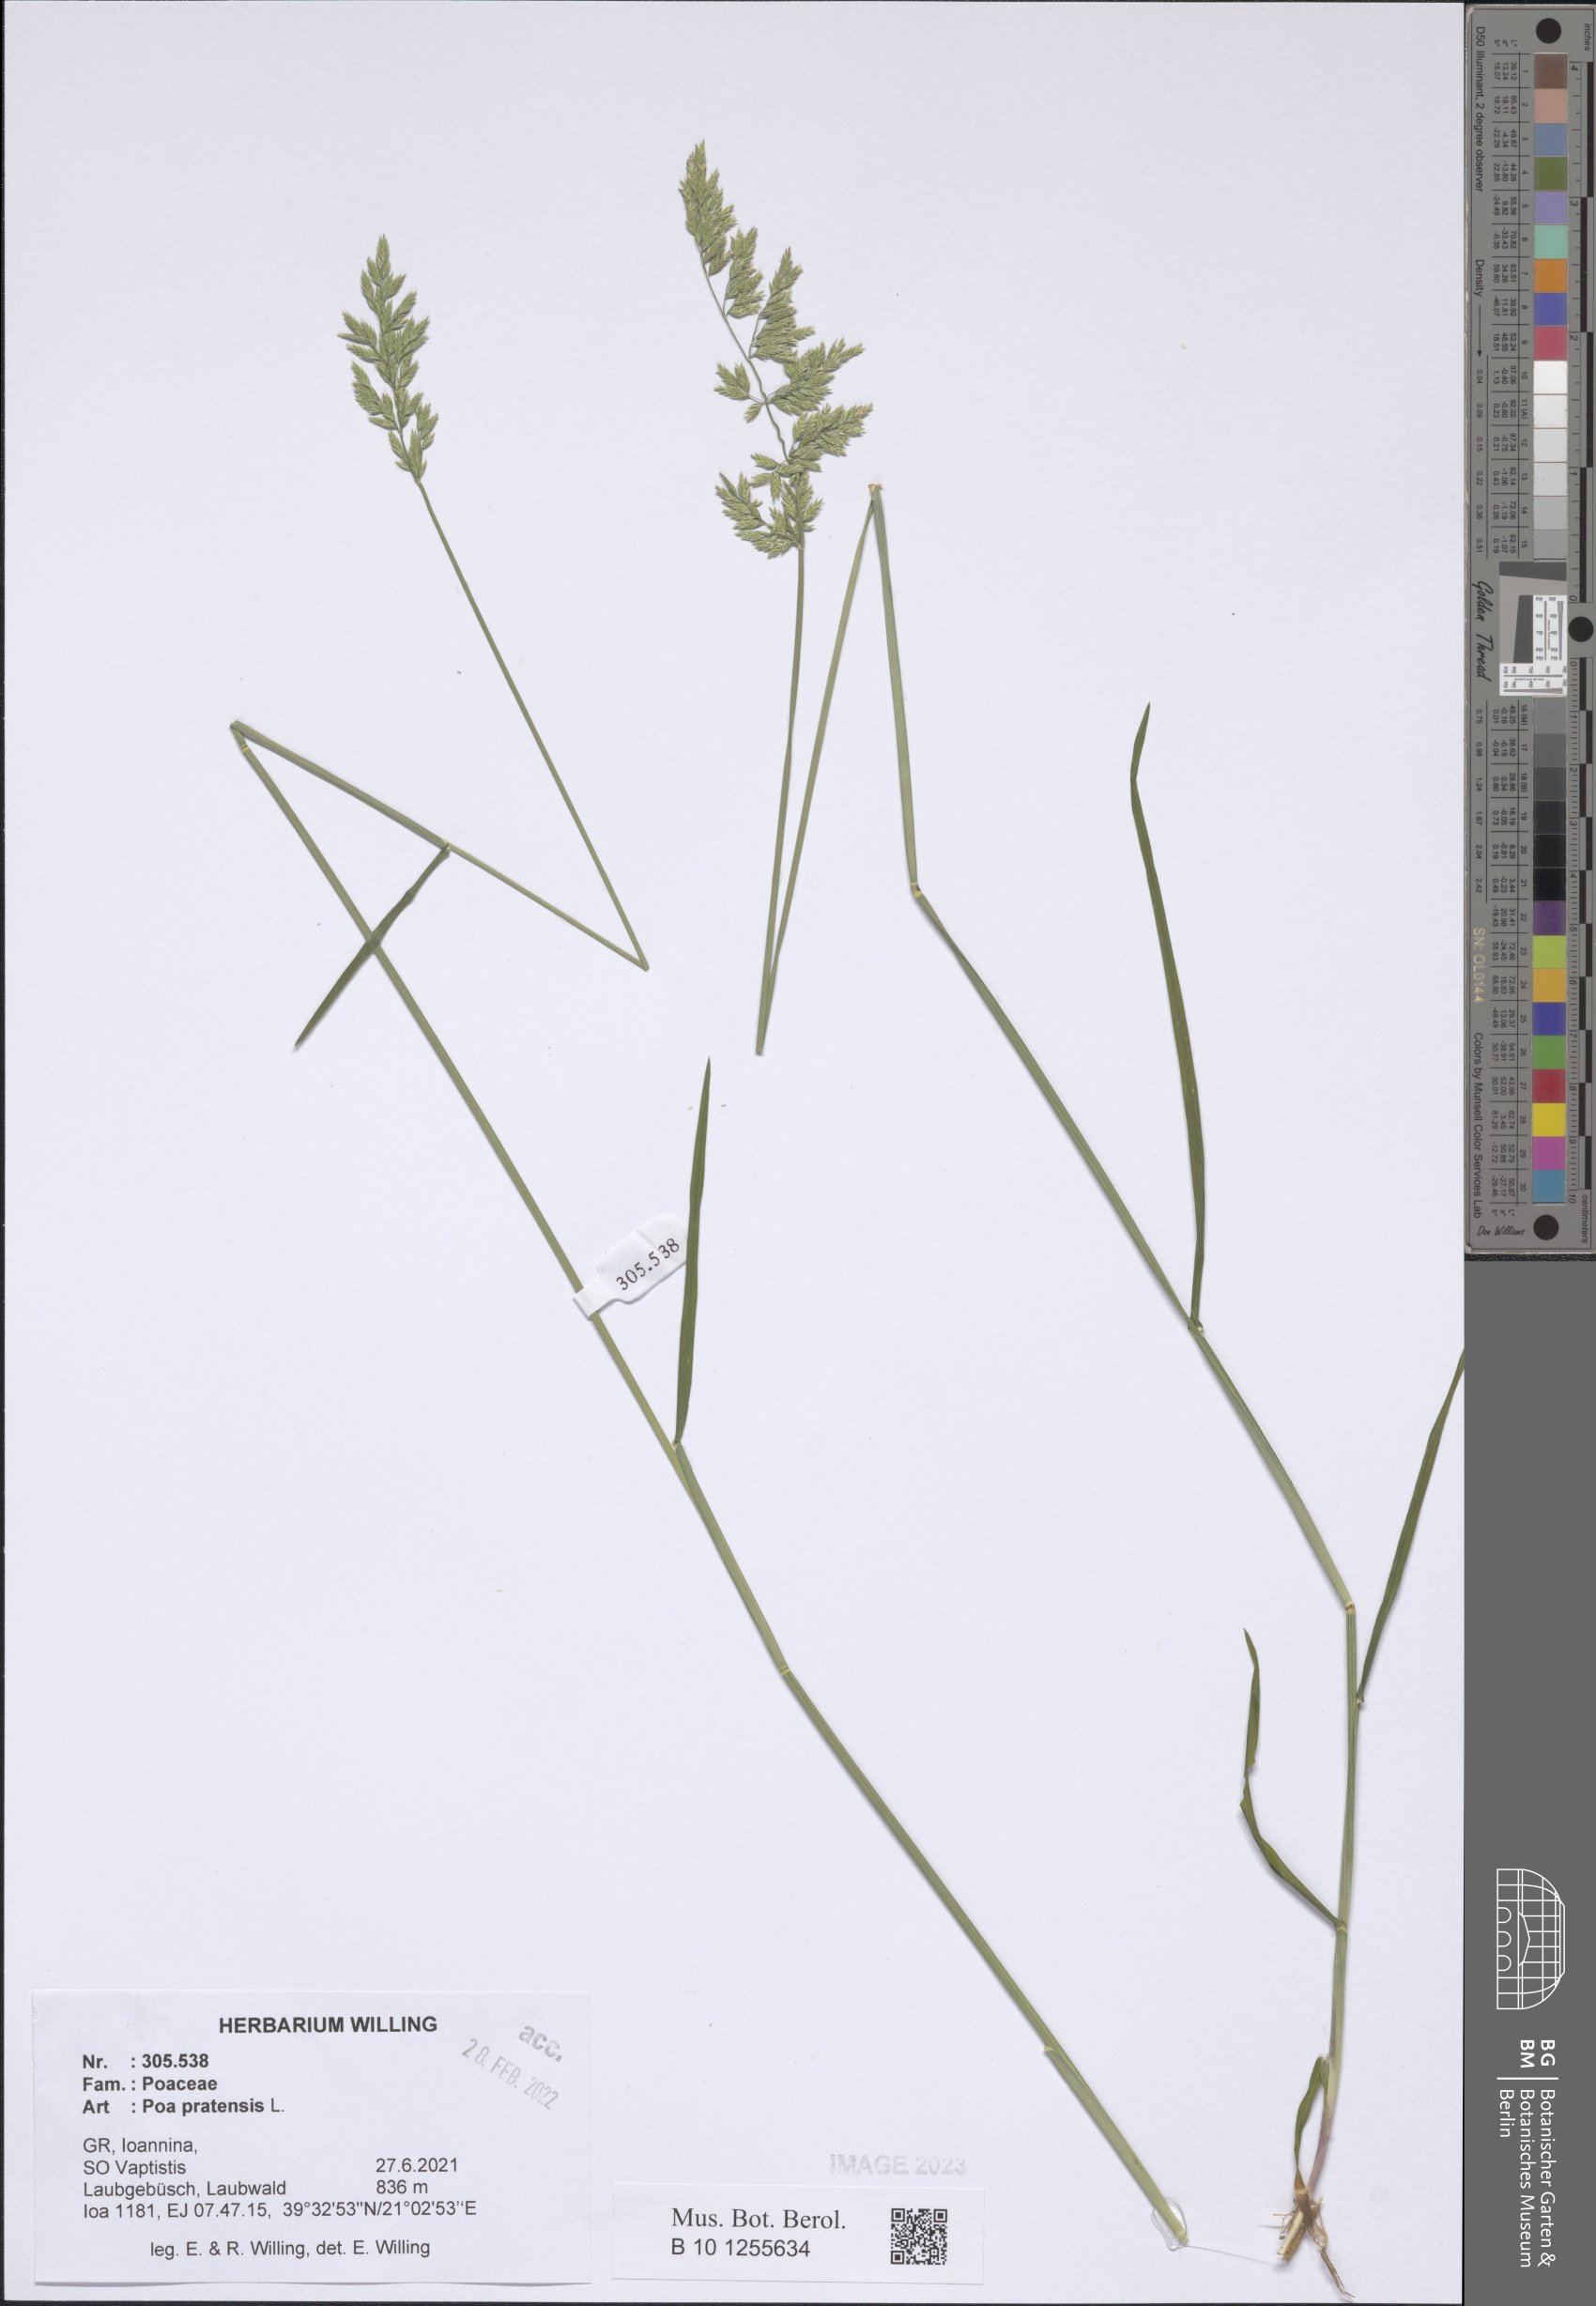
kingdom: Plantae
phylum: Tracheophyta
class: Liliopsida
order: Poales
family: Poaceae
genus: Poa
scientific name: Poa pratensis
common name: Kentucky bluegrass
